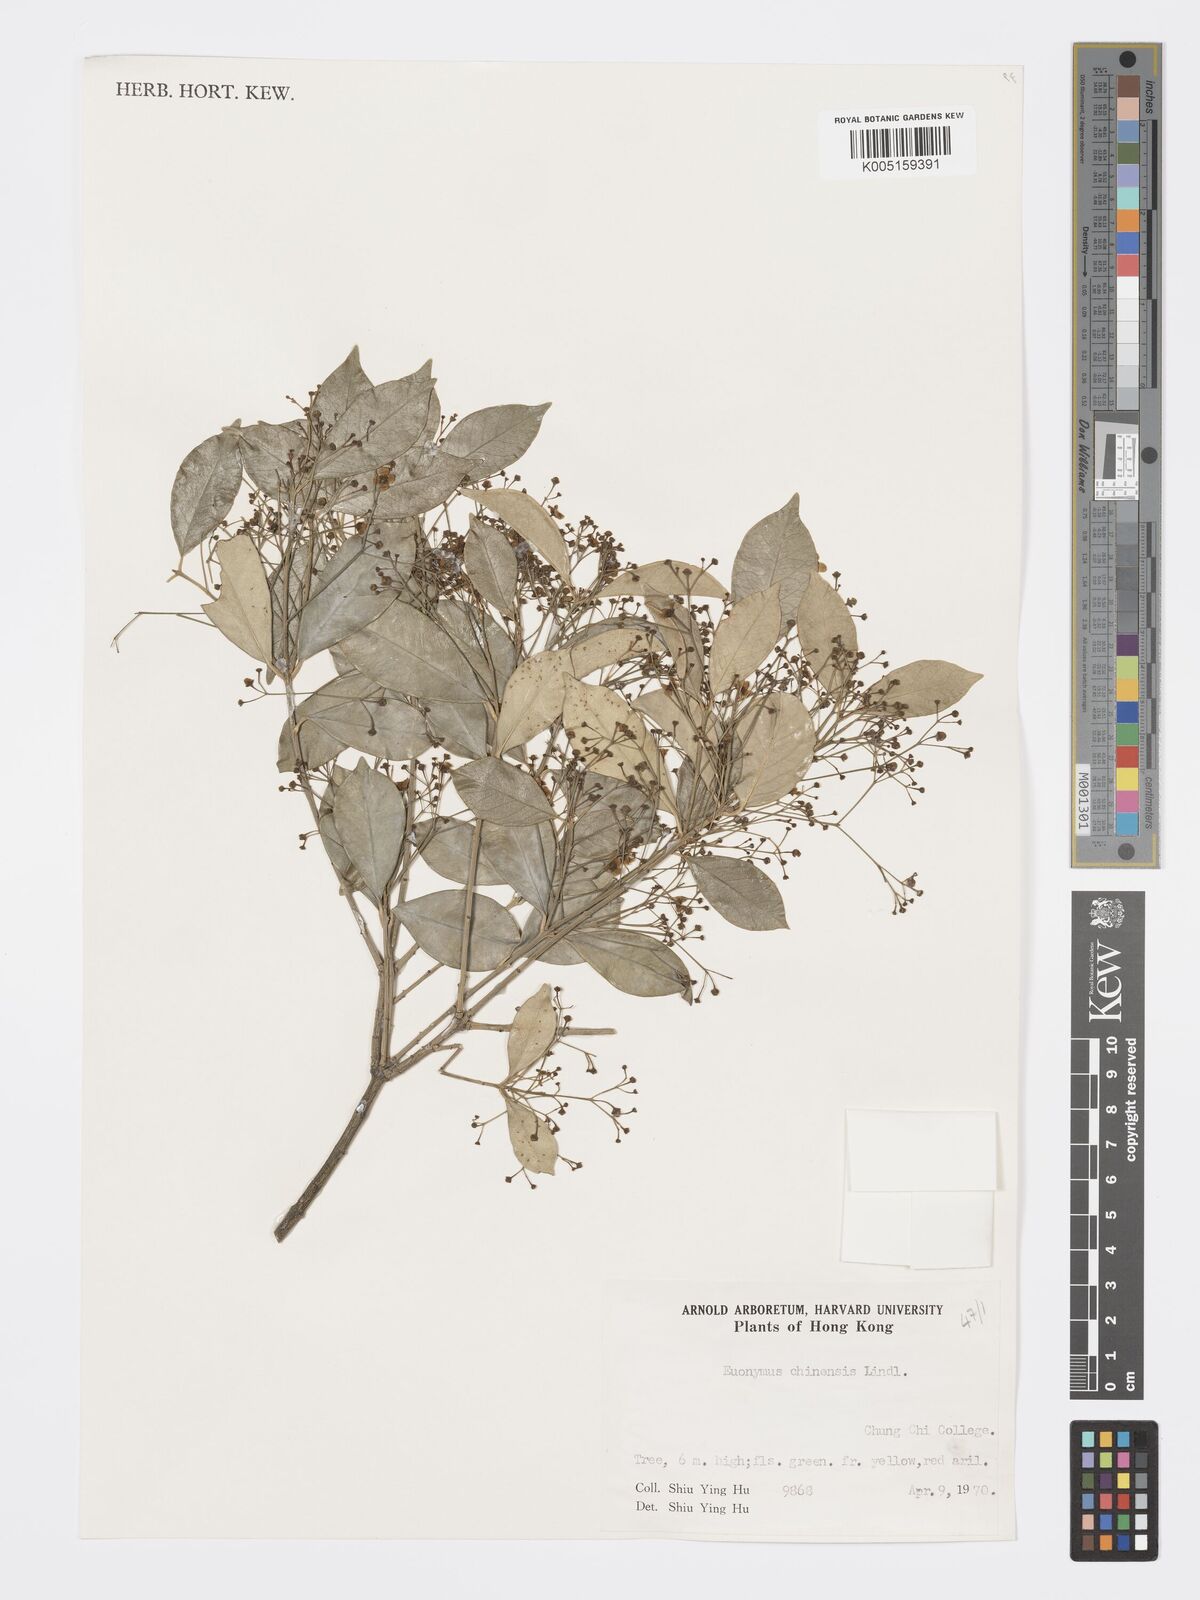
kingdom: Plantae
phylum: Tracheophyta
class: Magnoliopsida
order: Celastrales
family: Celastraceae
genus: Euonymus
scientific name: Euonymus nitidus
